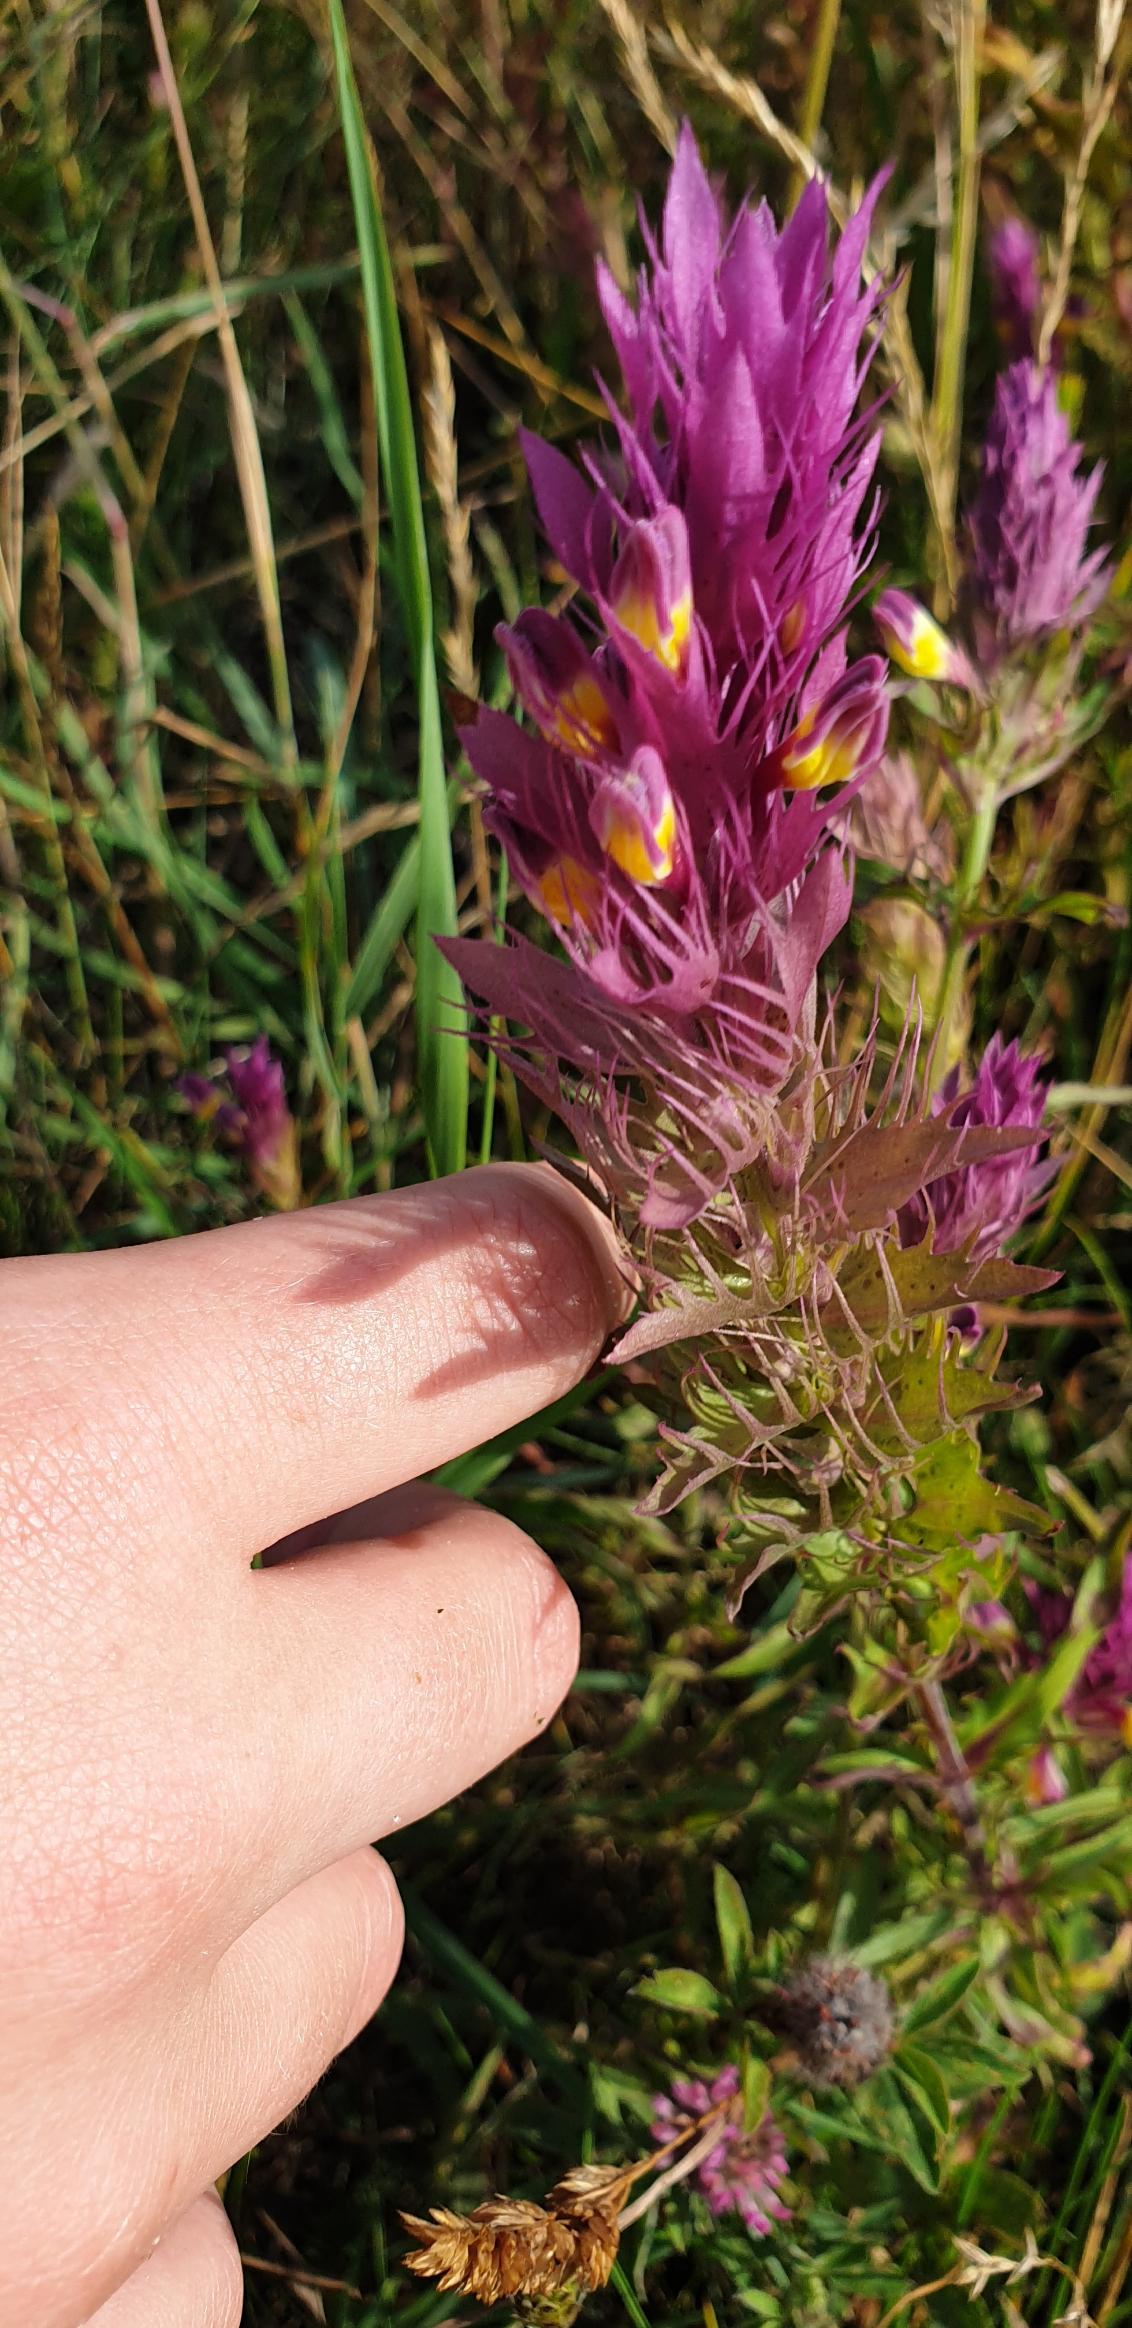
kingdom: Plantae
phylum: Tracheophyta
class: Magnoliopsida
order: Lamiales
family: Orobanchaceae
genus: Melampyrum
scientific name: Melampyrum arvense
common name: Ager-kohvede
